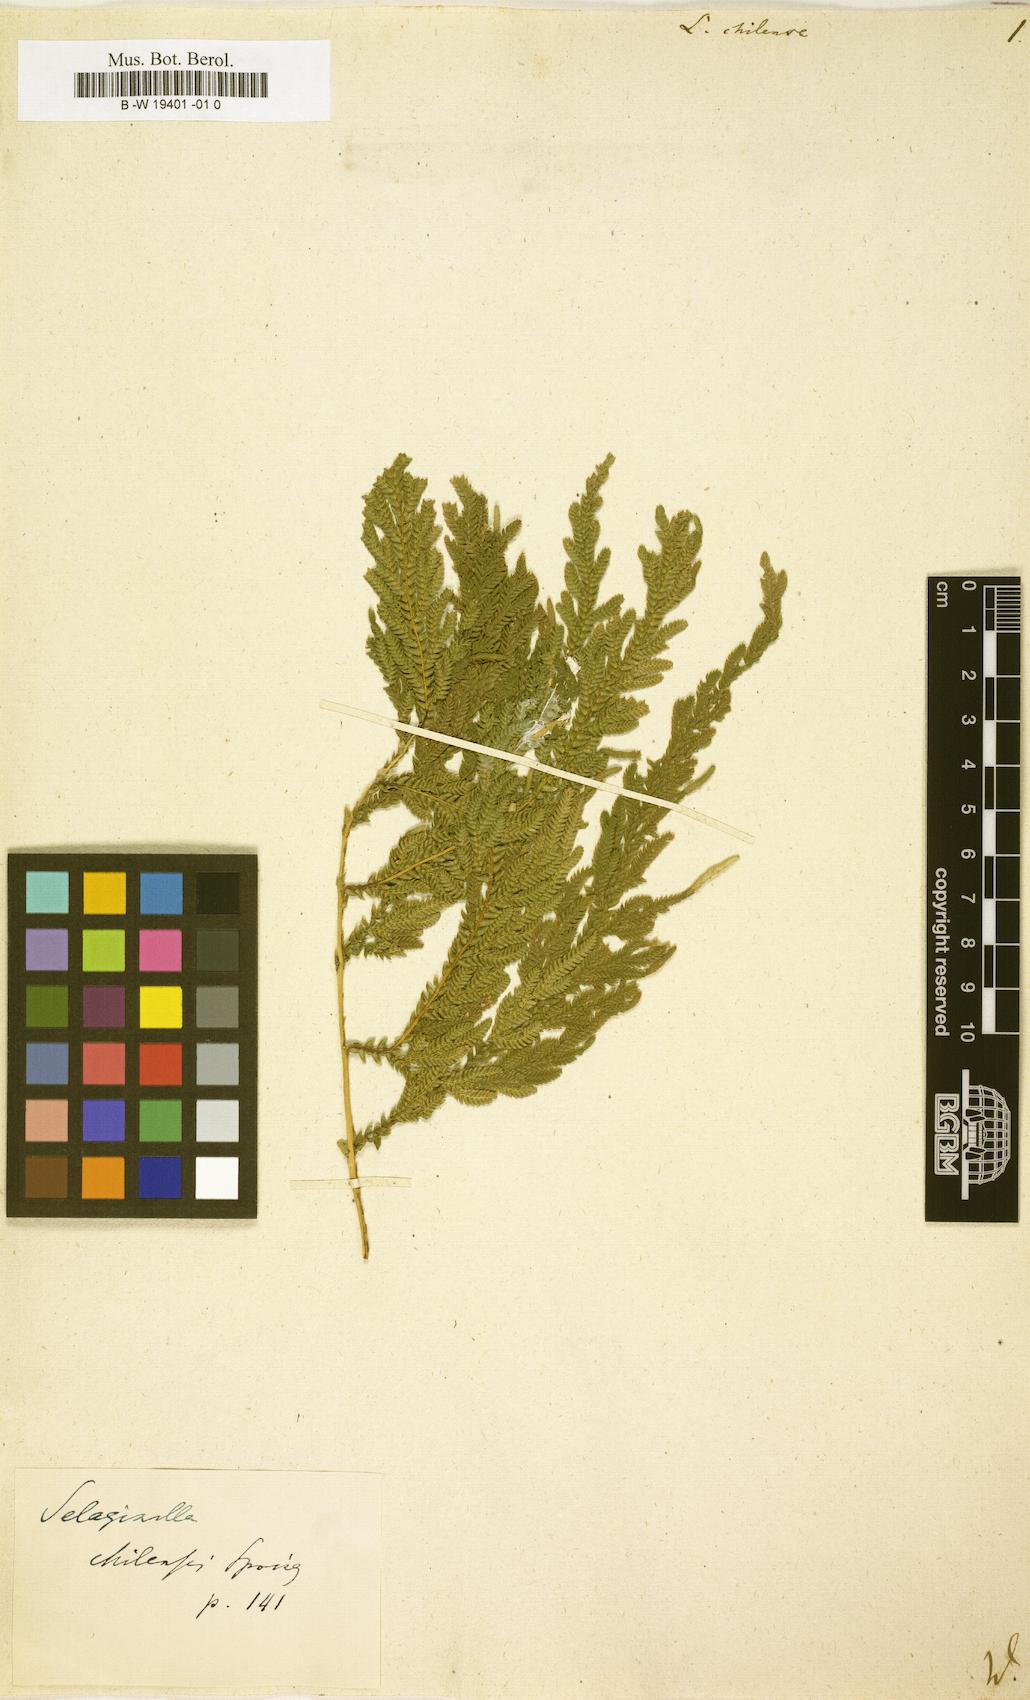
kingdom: Plantae
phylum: Tracheophyta
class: Lycopodiopsida
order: Lycopodiales
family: Lycopodiaceae
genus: Huperzia
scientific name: Huperzia
